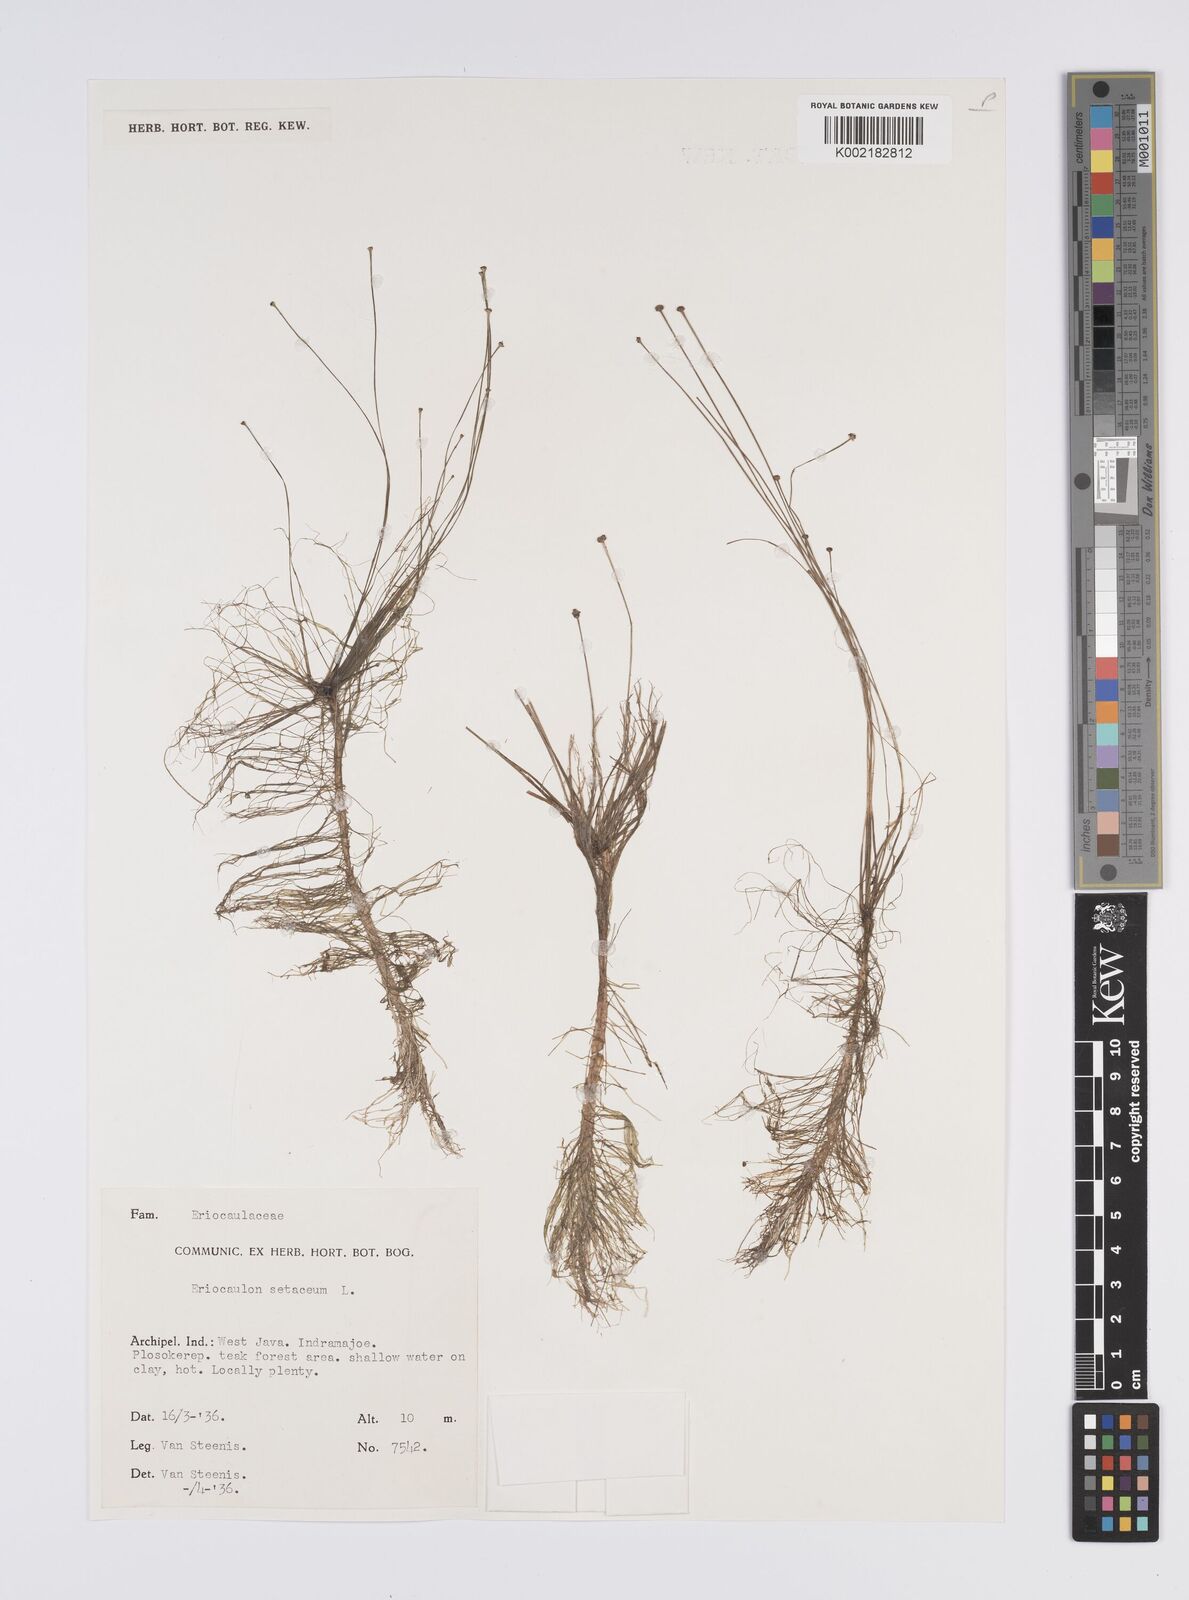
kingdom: Plantae
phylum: Tracheophyta
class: Liliopsida
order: Poales
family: Eriocaulaceae
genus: Eriocaulon
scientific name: Eriocaulon setaceum
